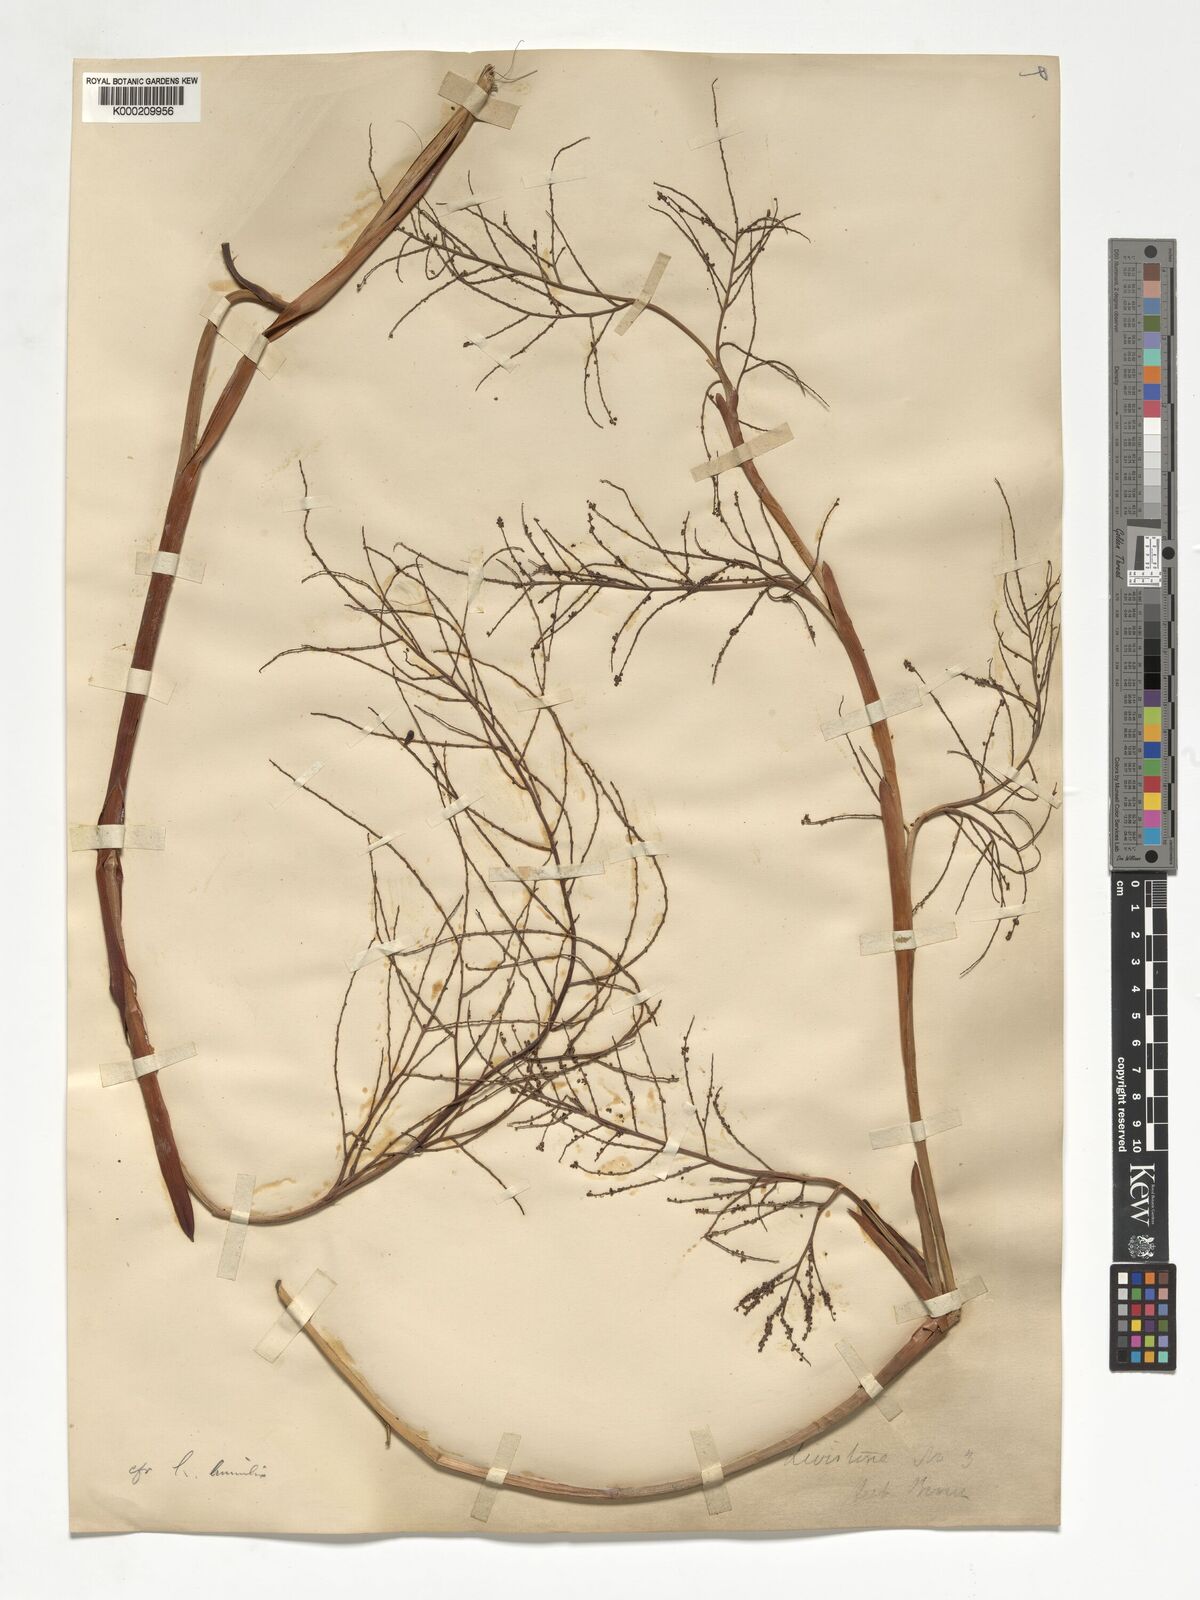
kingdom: Plantae
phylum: Tracheophyta
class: Liliopsida
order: Arecales
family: Arecaceae
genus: Livistona
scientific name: Livistona humilis
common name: Cabbage palm
